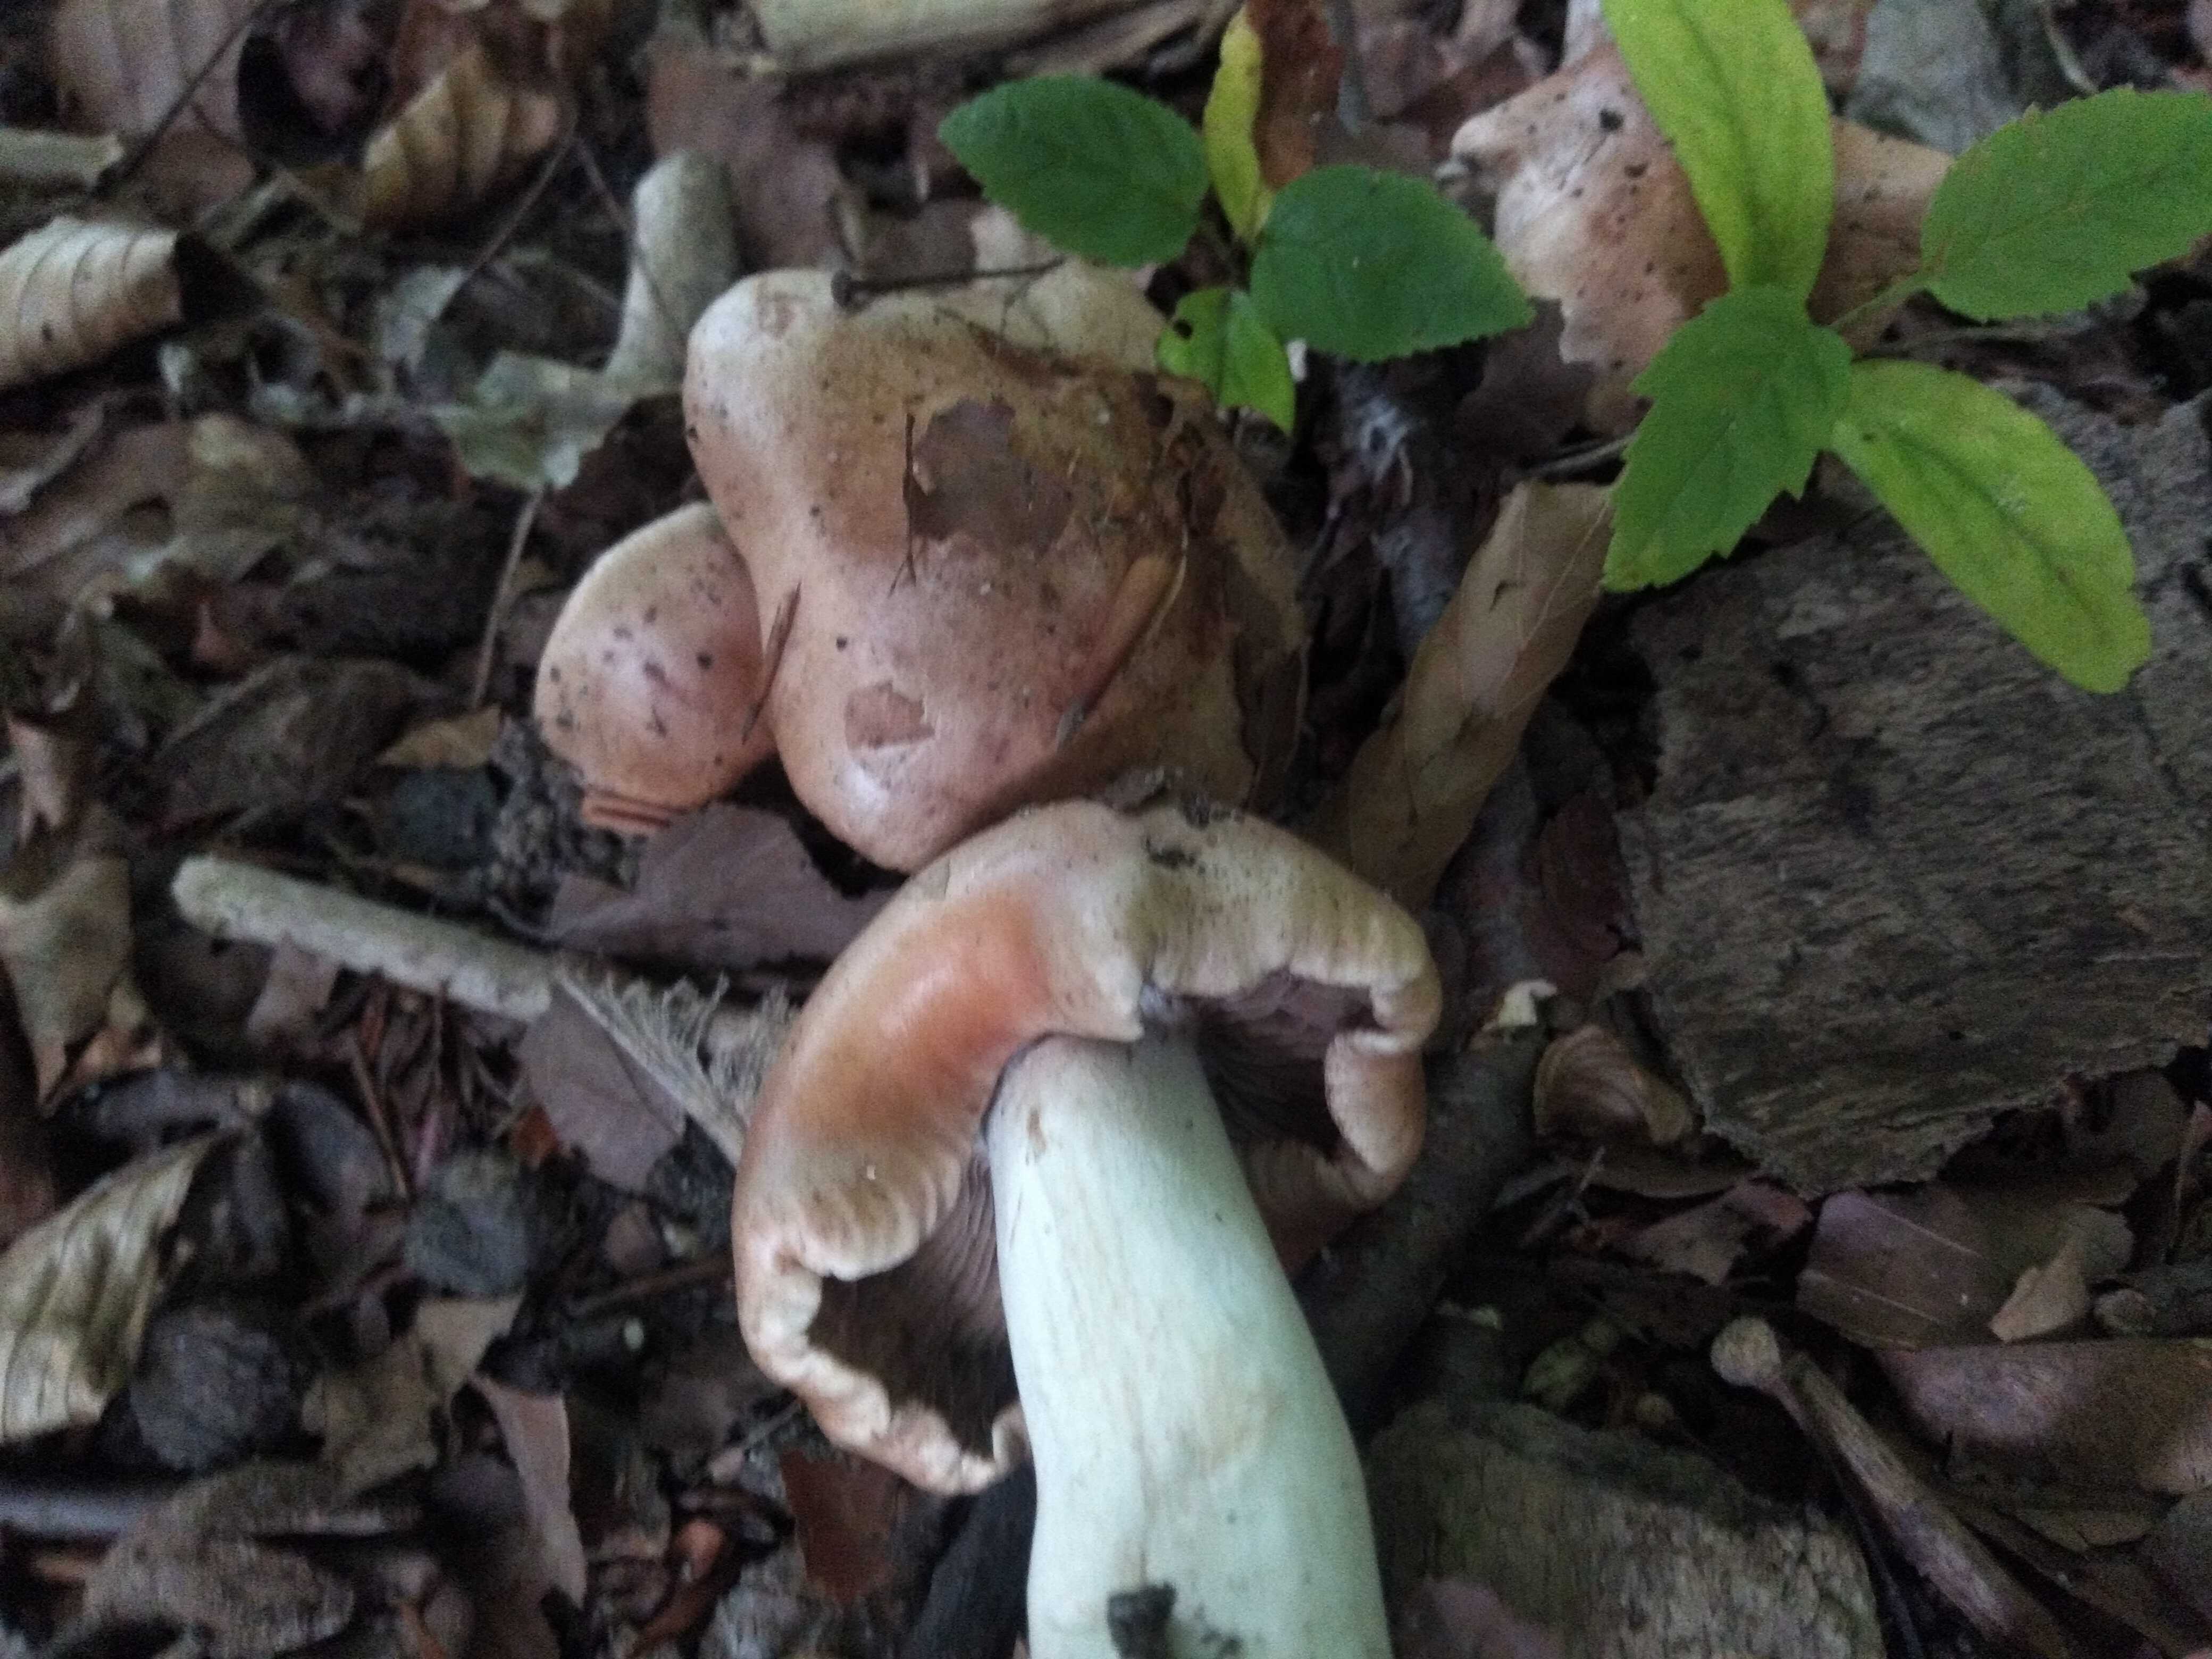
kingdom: Fungi
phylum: Basidiomycota
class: Agaricomycetes
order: Agaricales
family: Hymenogastraceae
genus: Hebeloma
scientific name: Hebeloma theobrominum
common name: rødbrun tåreblad
